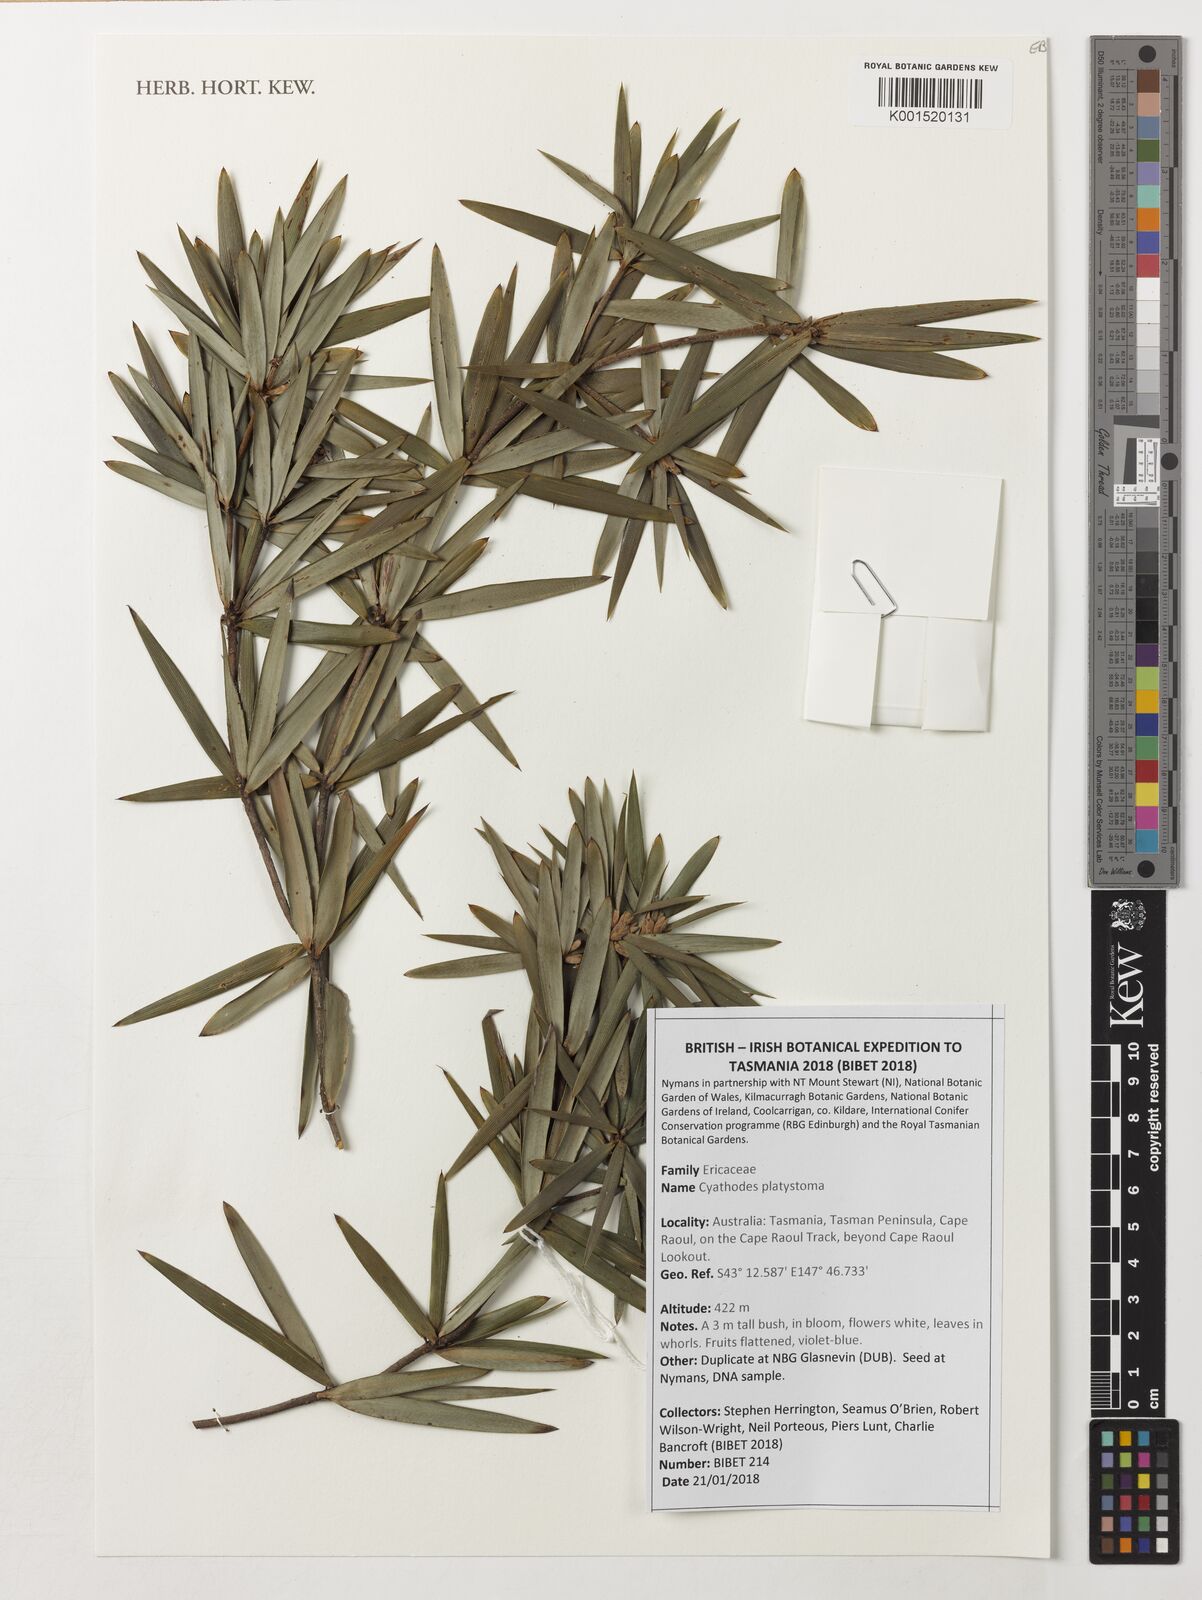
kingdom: Plantae
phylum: Tracheophyta
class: Magnoliopsida
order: Ericales
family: Ericaceae
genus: Cyathodes
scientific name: Cyathodes platystoma
